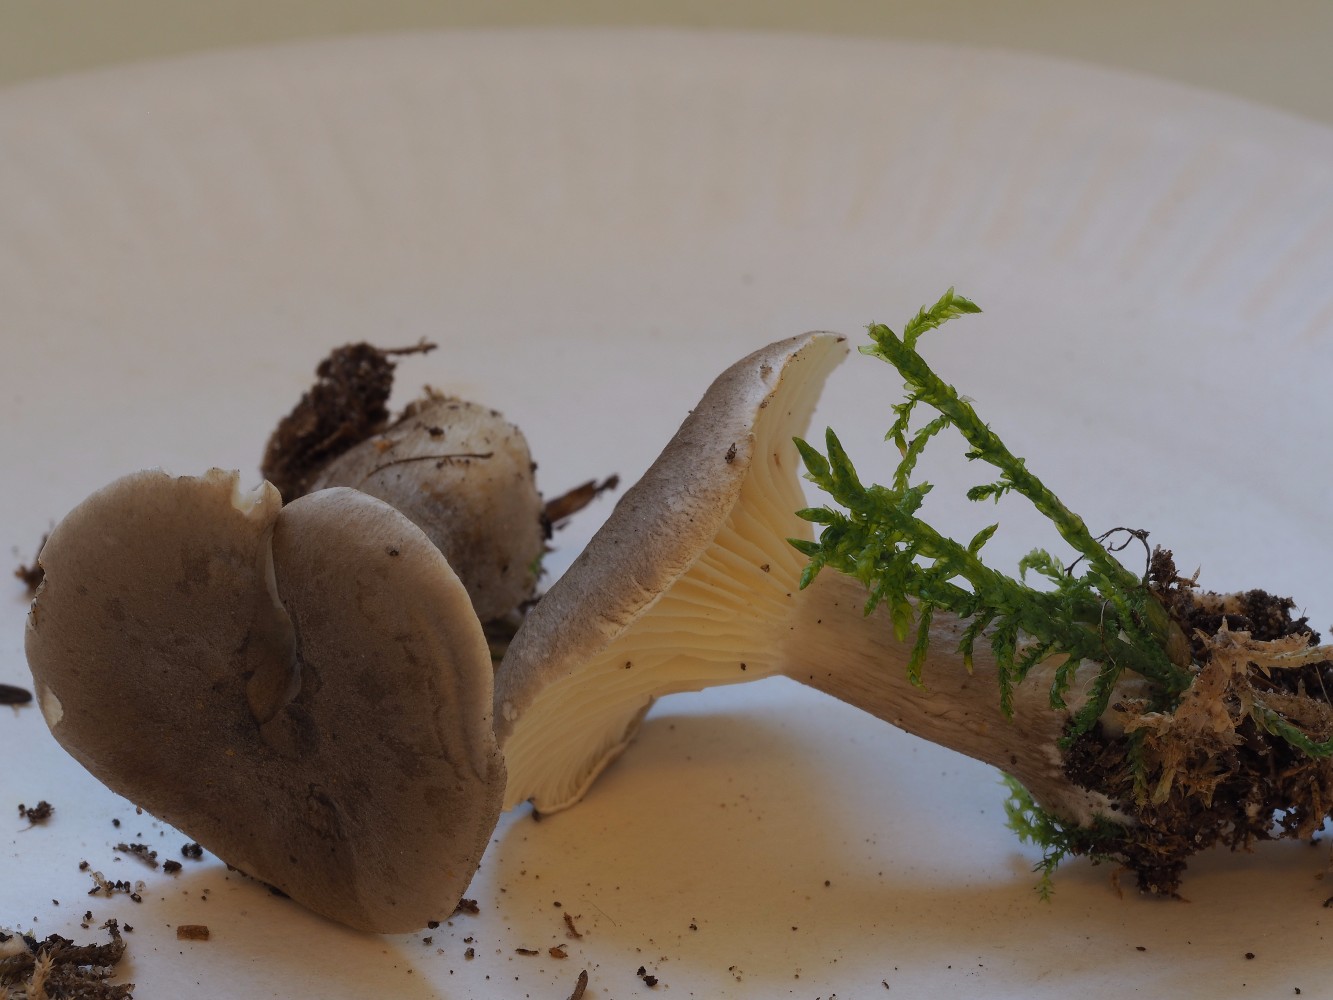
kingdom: Fungi
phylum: Basidiomycota
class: Agaricomycetes
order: Agaricales
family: Hygrophoraceae
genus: Ampulloclitocybe
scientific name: Ampulloclitocybe clavipes
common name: køllefod
